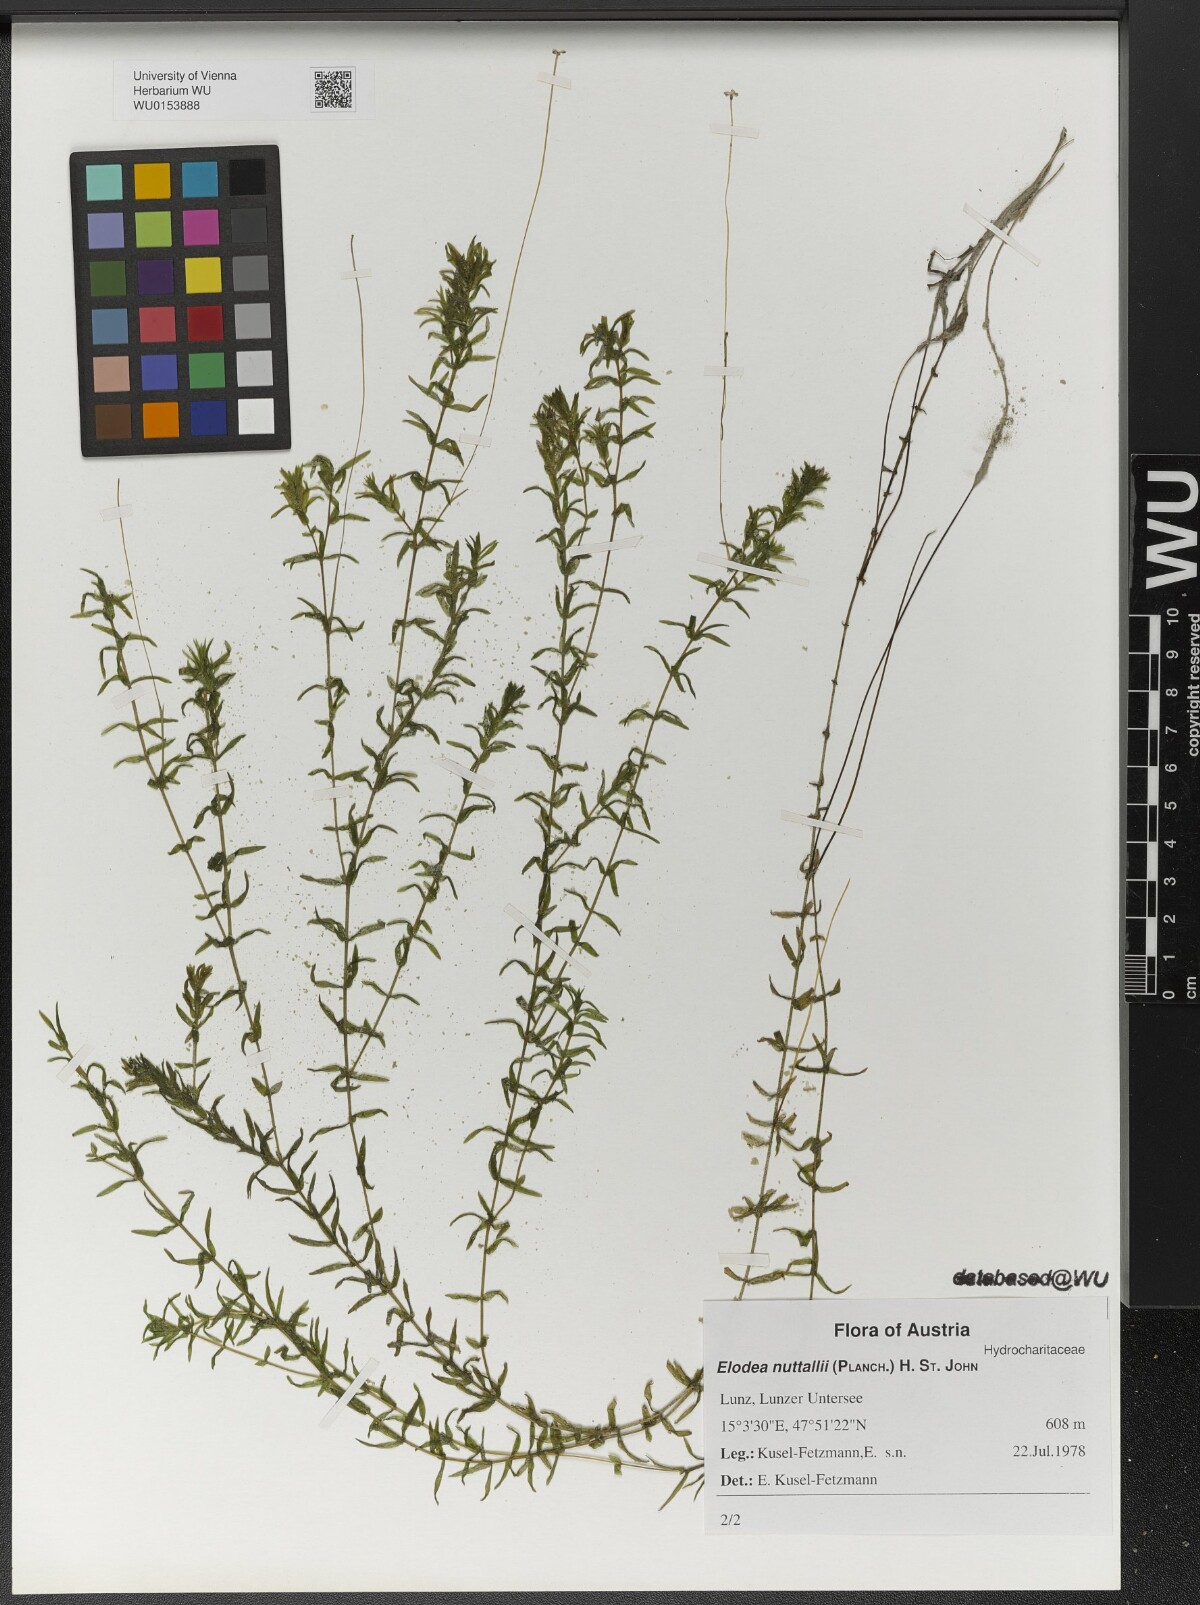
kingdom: Plantae
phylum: Tracheophyta
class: Liliopsida
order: Alismatales
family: Hydrocharitaceae
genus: Elodea
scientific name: Elodea nuttallii
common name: Nuttall's waterweed
